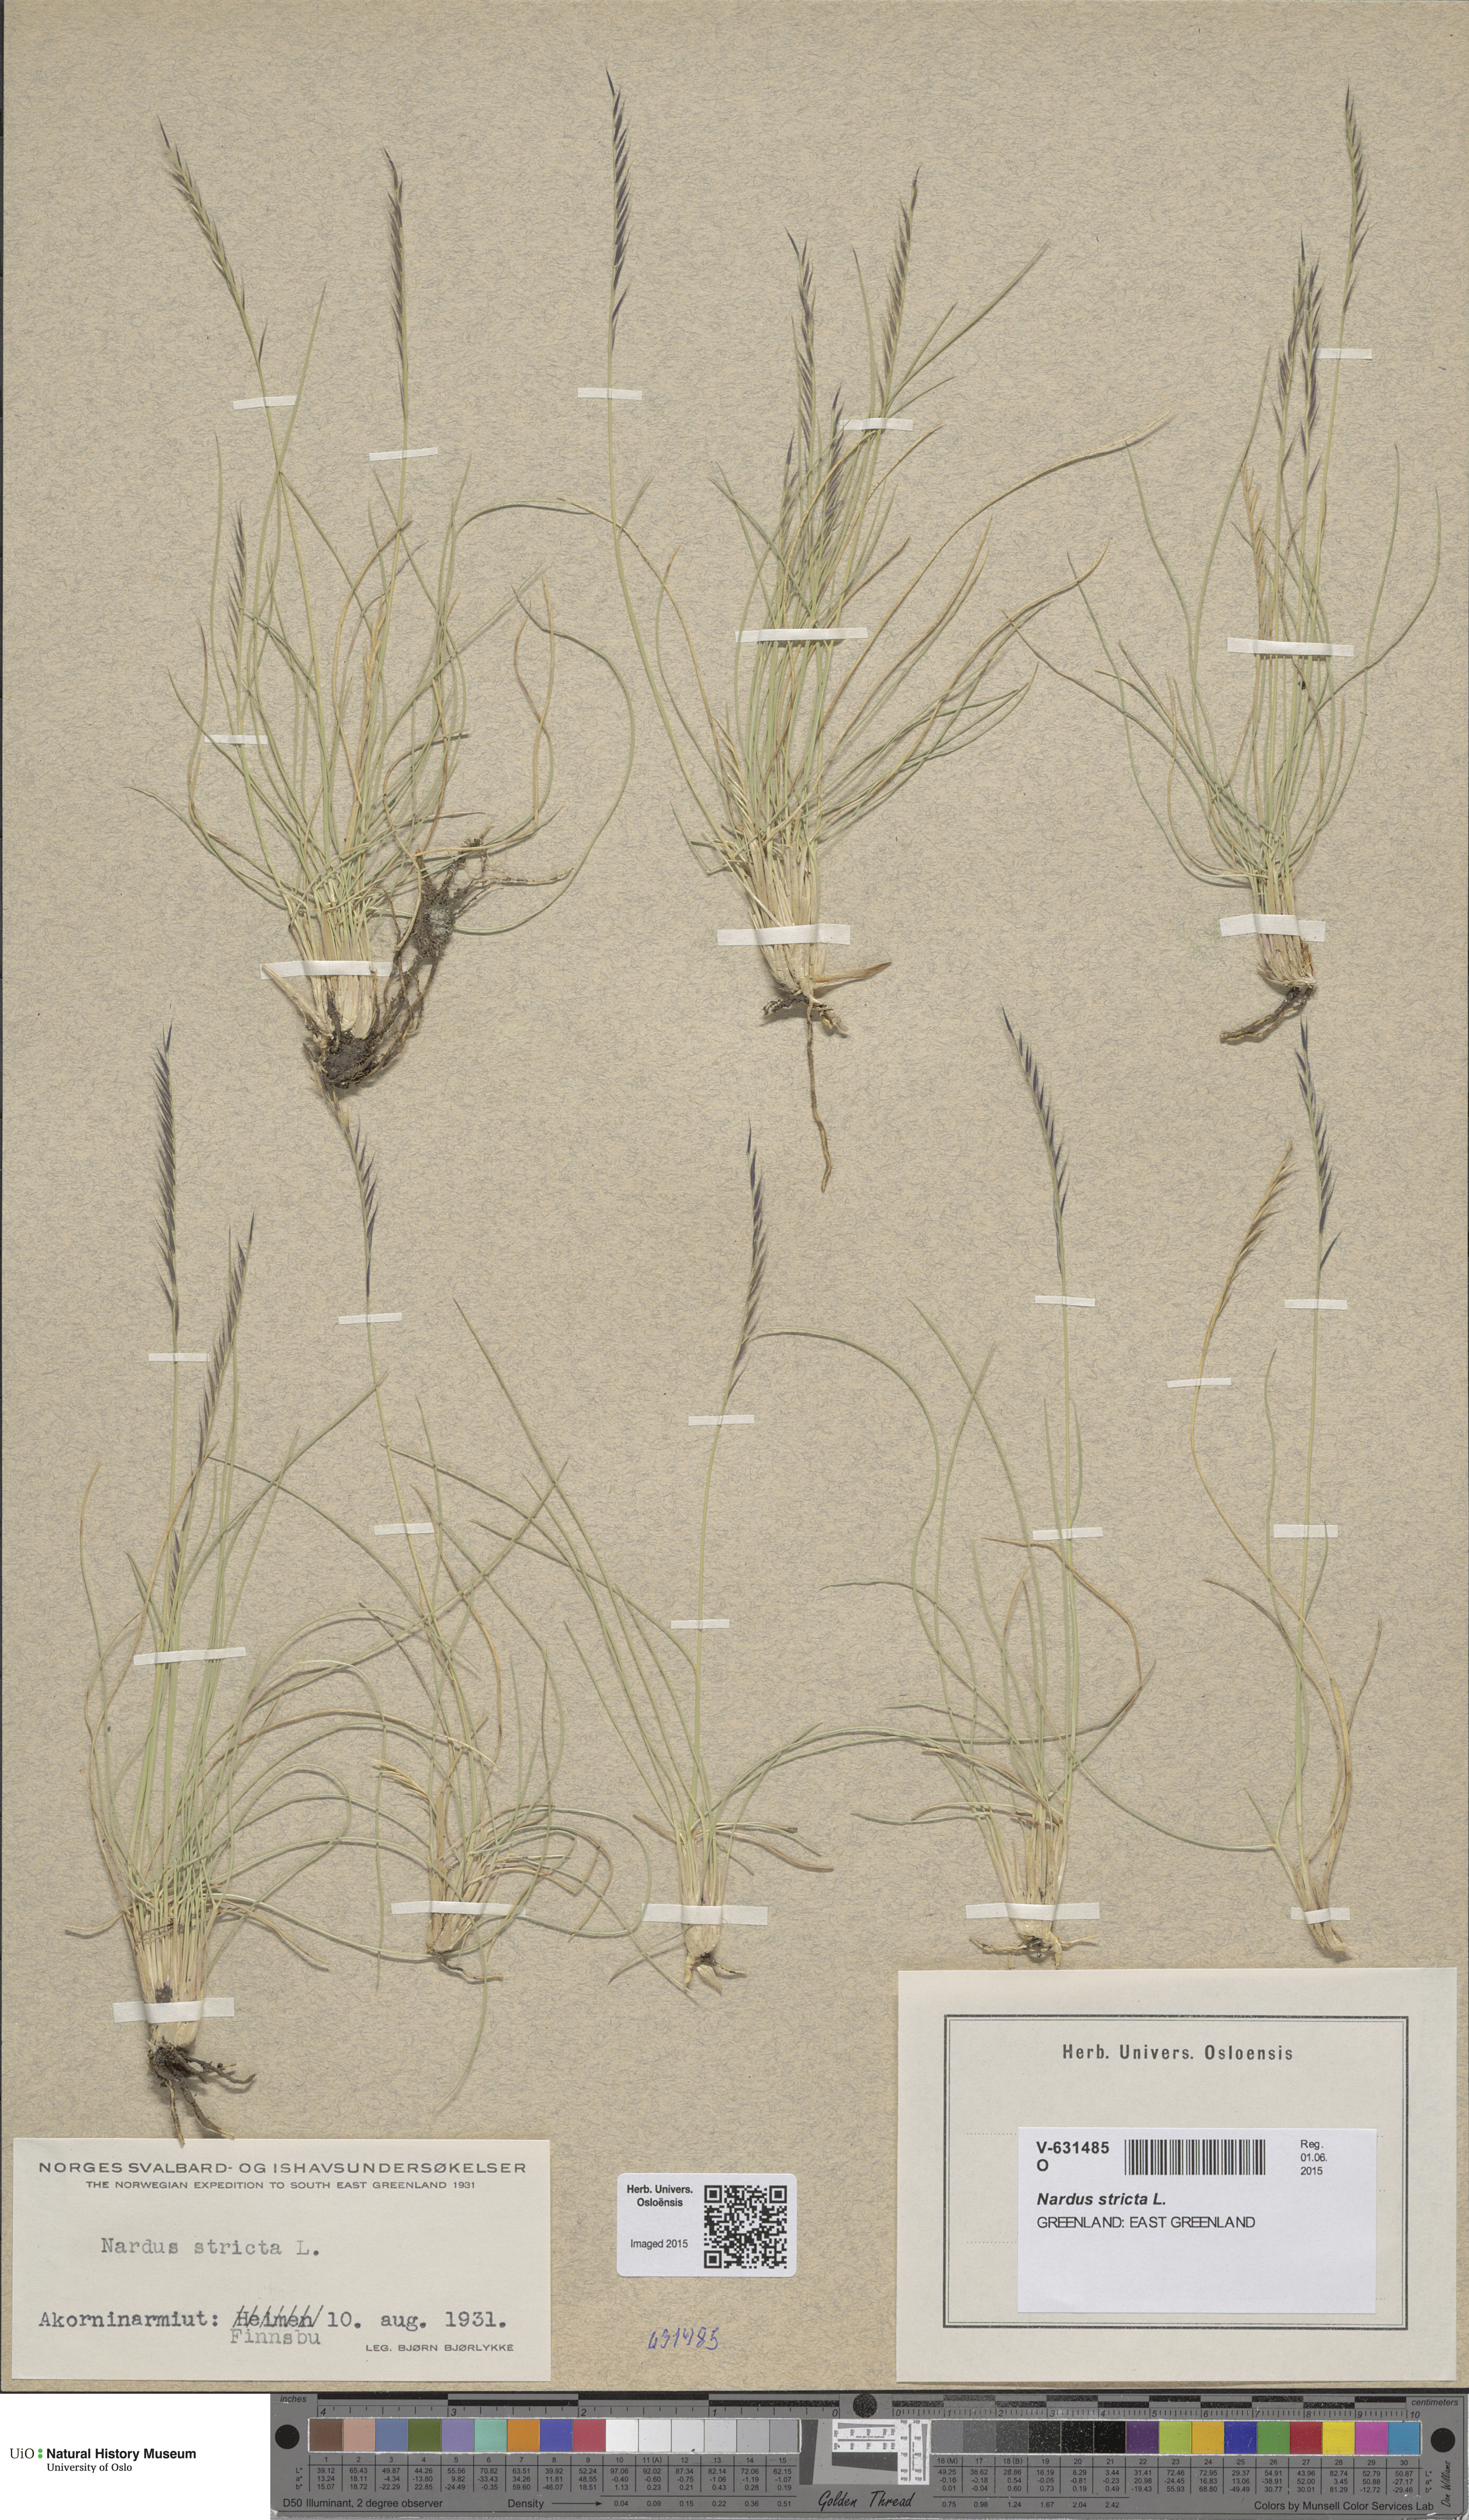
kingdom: Plantae
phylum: Tracheophyta
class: Liliopsida
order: Poales
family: Poaceae
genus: Nardus
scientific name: Nardus stricta
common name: Mat-grass
